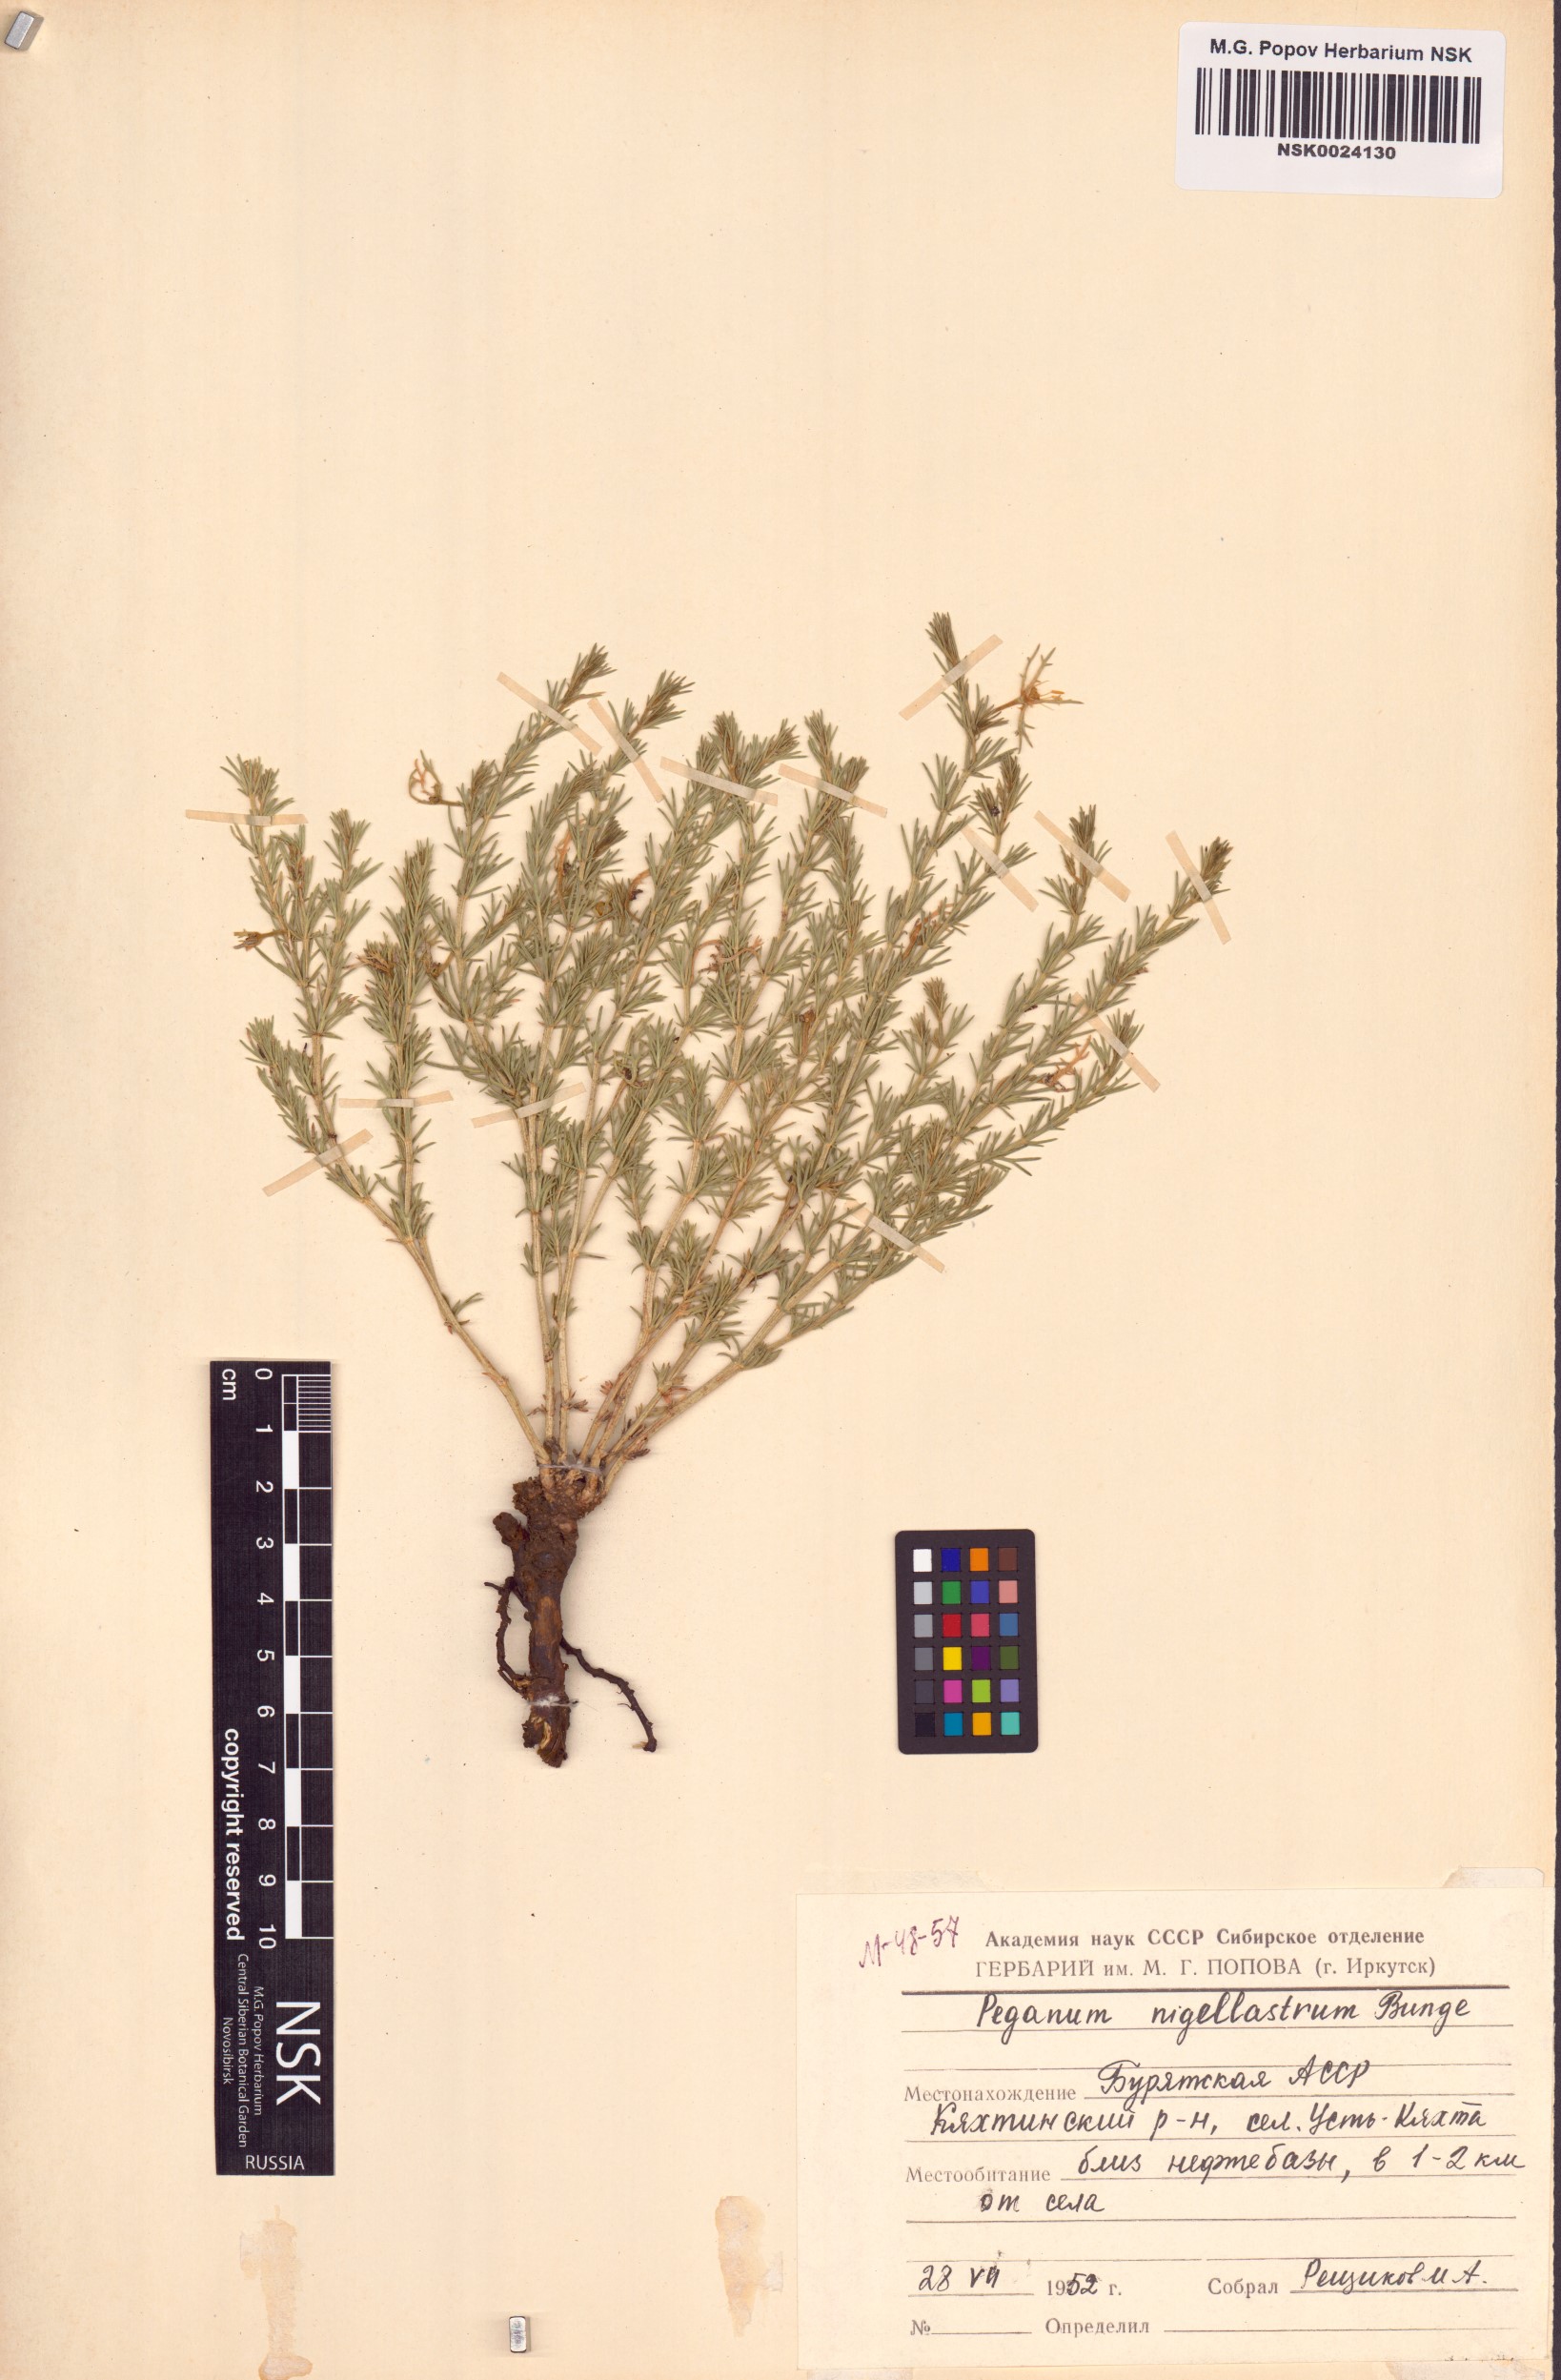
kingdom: Plantae
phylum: Tracheophyta
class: Magnoliopsida
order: Sapindales
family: Tetradiclidaceae
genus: Peganum
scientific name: Peganum nigellastrum
